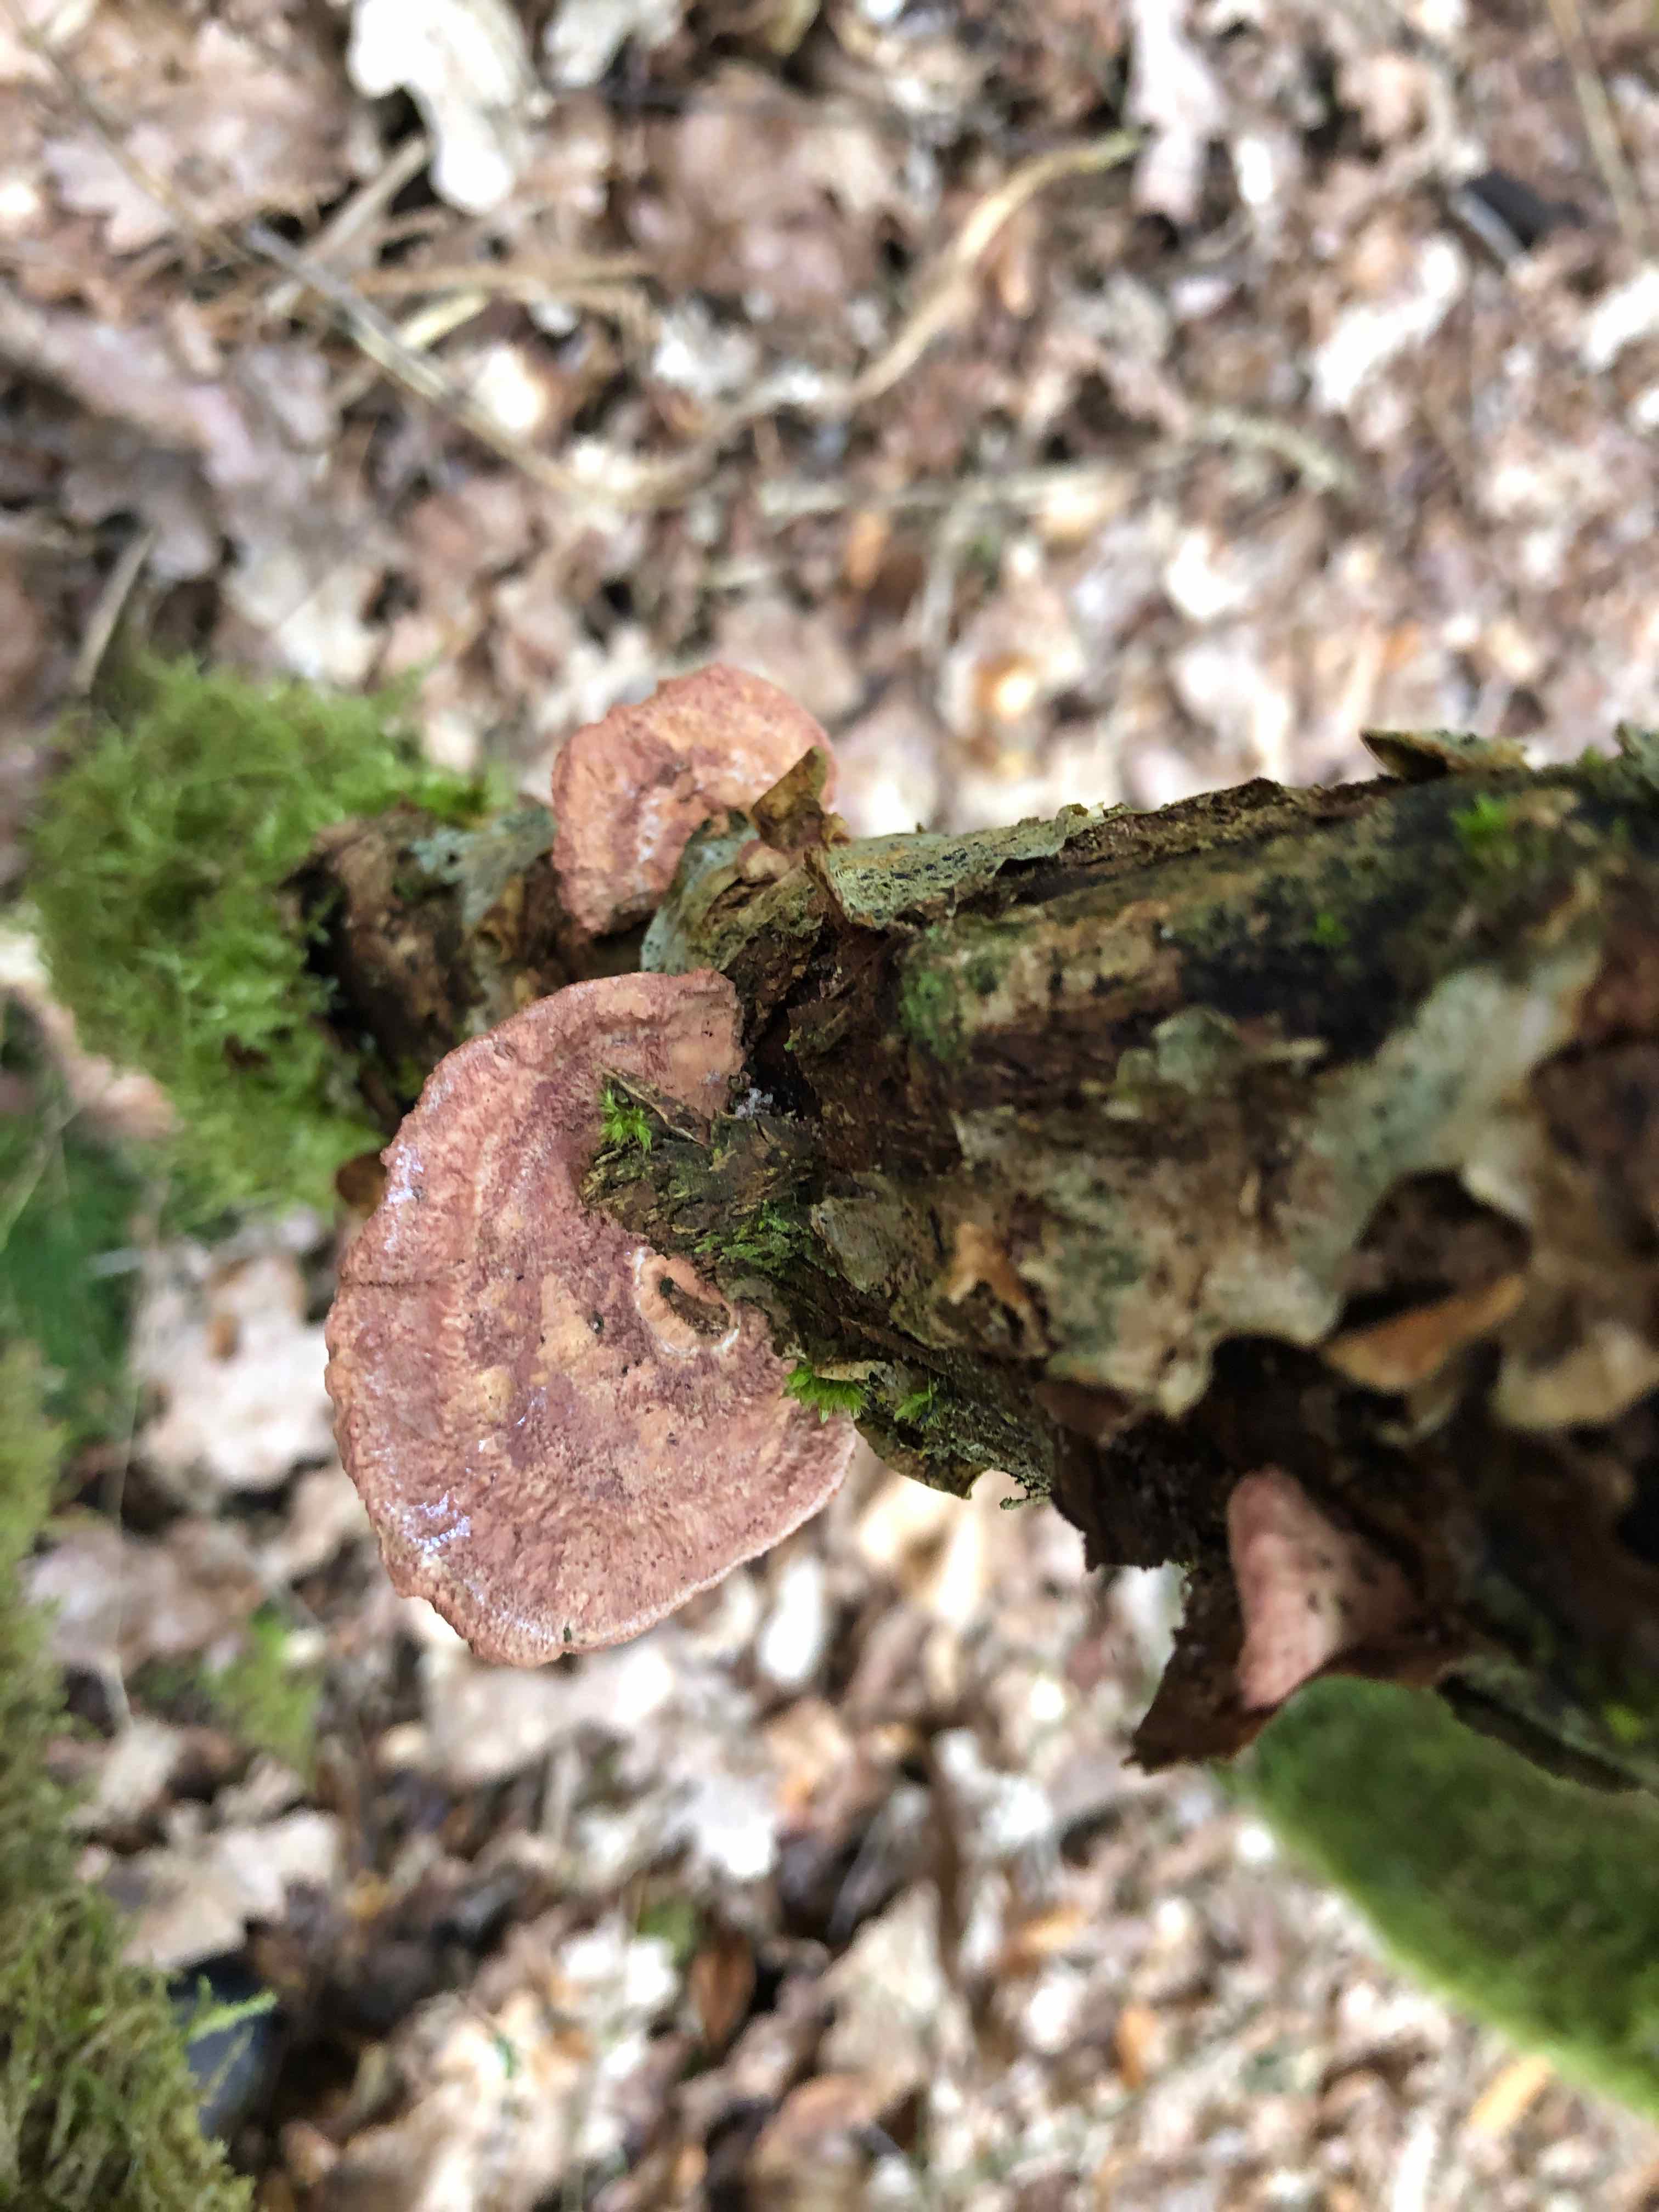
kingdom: Fungi
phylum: Basidiomycota
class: Agaricomycetes
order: Polyporales
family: Phanerochaetaceae
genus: Hapalopilus
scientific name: Hapalopilus rutilans
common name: rødlig okkerporesvamp
